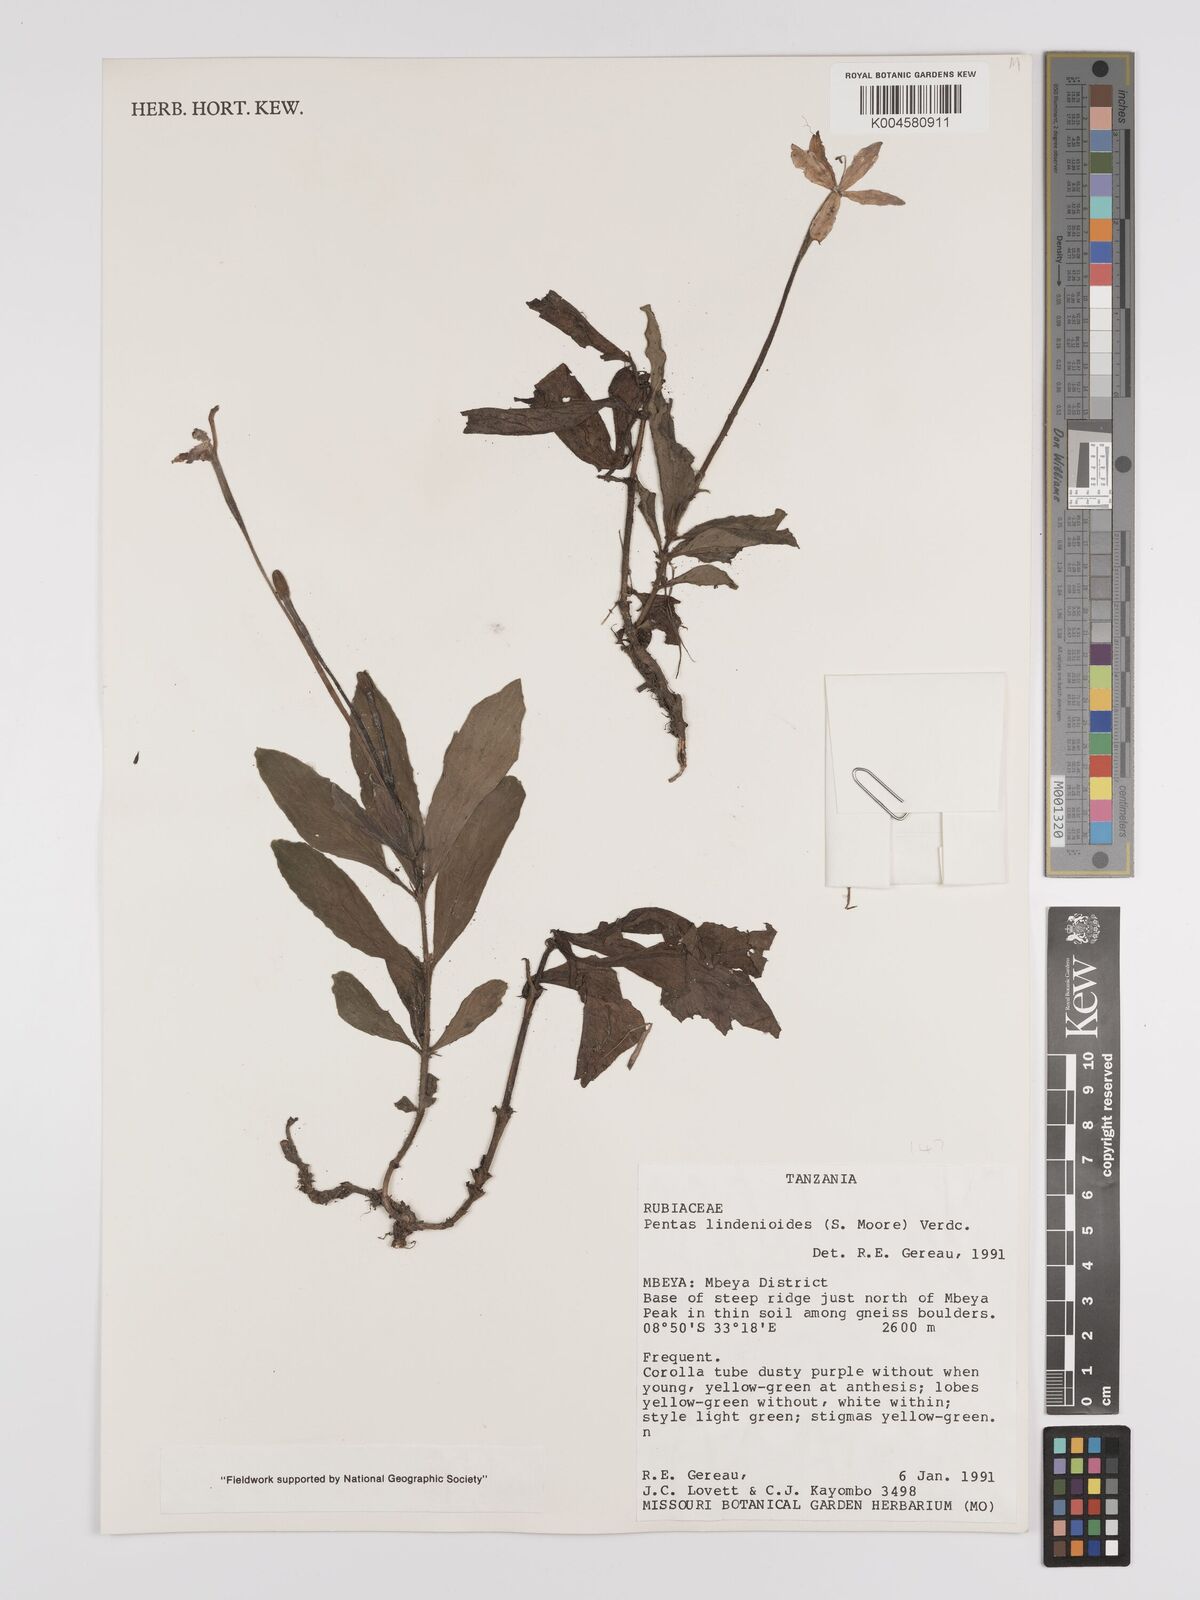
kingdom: Plantae
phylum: Tracheophyta
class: Magnoliopsida
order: Gentianales
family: Rubiaceae
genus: Dolichopentas
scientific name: Dolichopentas lindenioides
